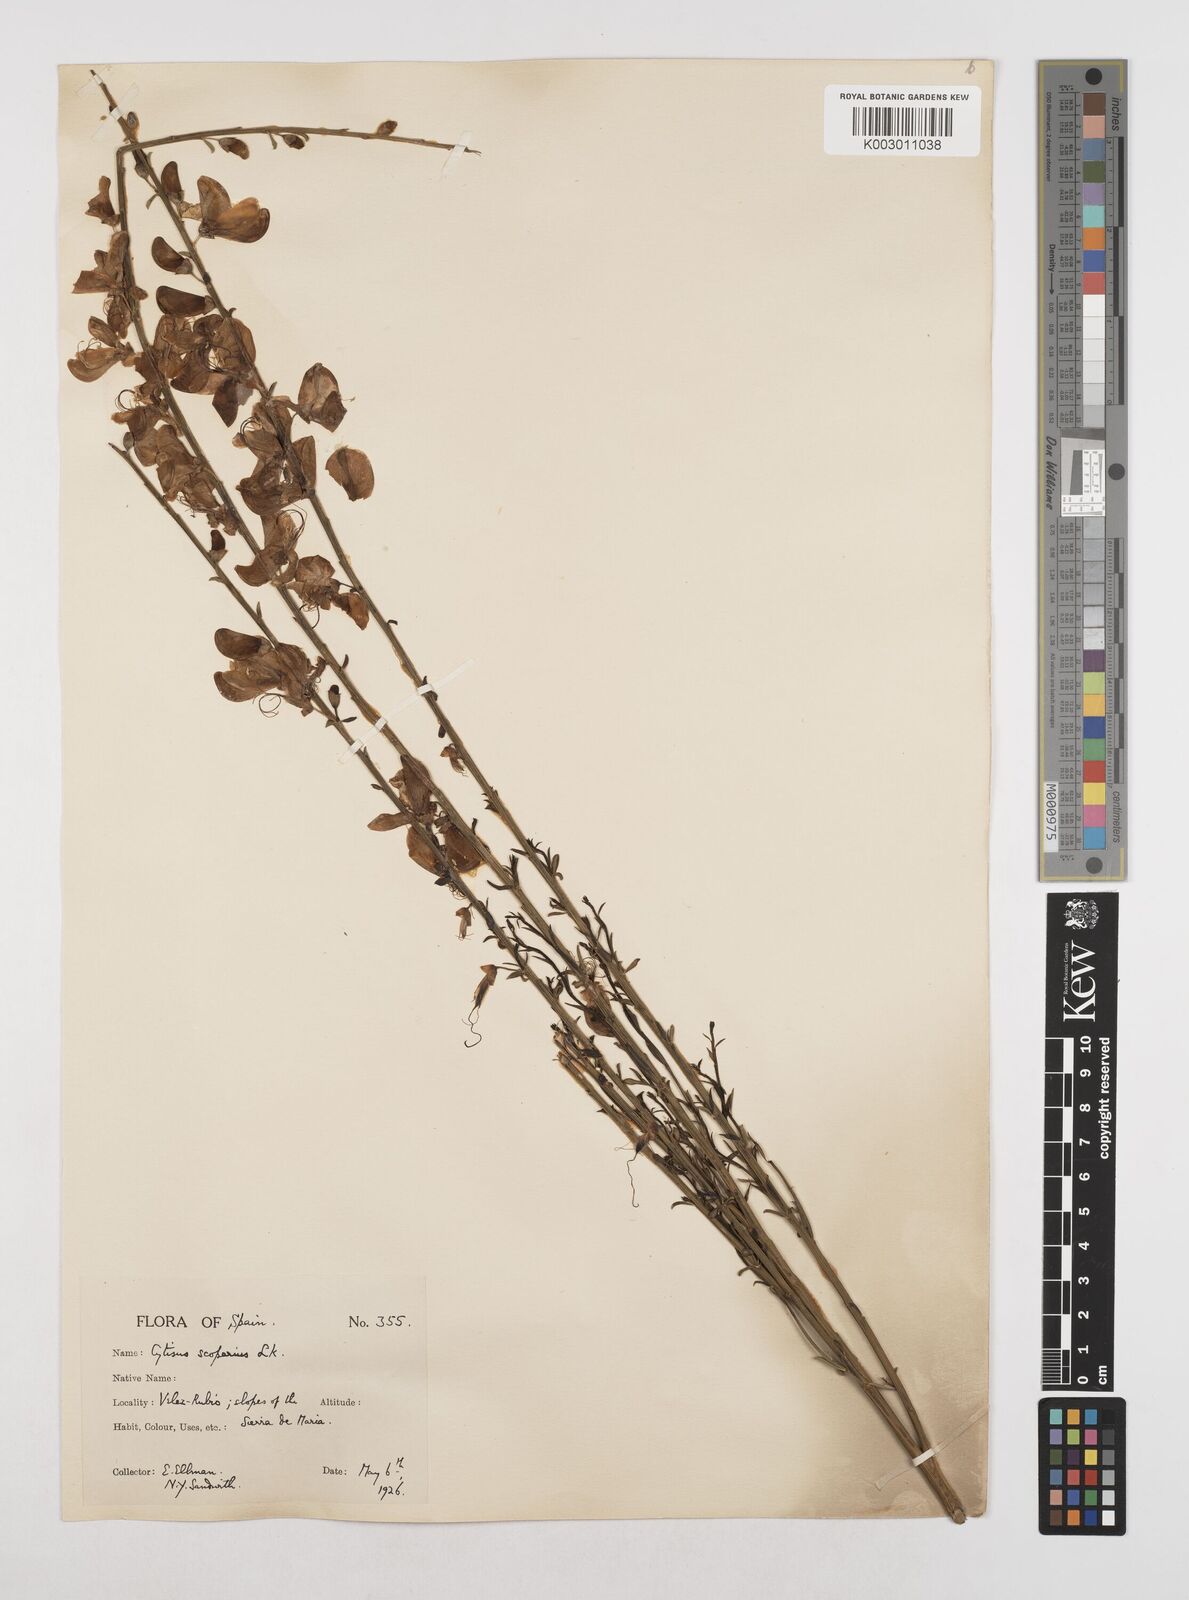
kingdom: Plantae
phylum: Tracheophyta
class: Magnoliopsida
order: Fabales
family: Fabaceae
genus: Cytisus
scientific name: Cytisus scoparius
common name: Scotch broom
